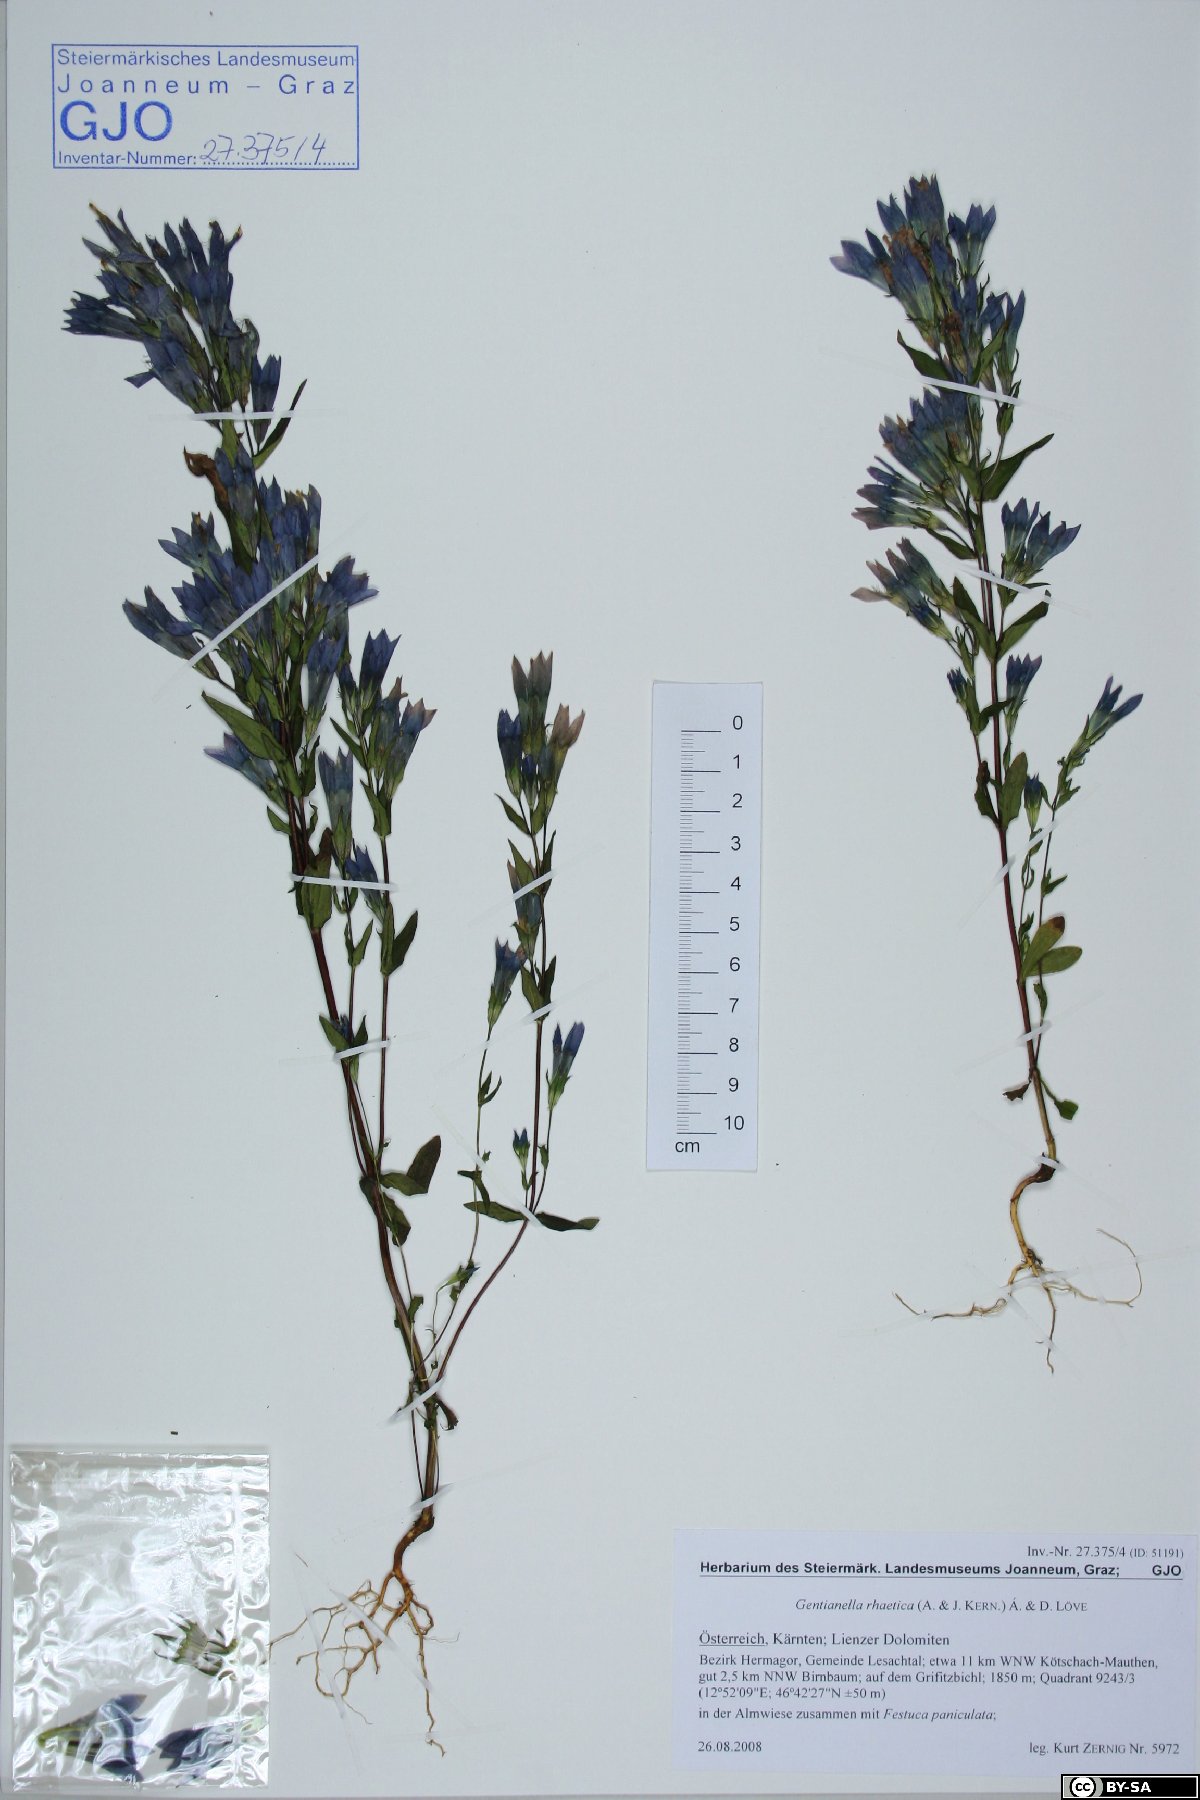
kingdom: Plantae
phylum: Tracheophyta
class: Magnoliopsida
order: Gentianales
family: Gentianaceae
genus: Gentianella
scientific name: Gentianella rhaetica
